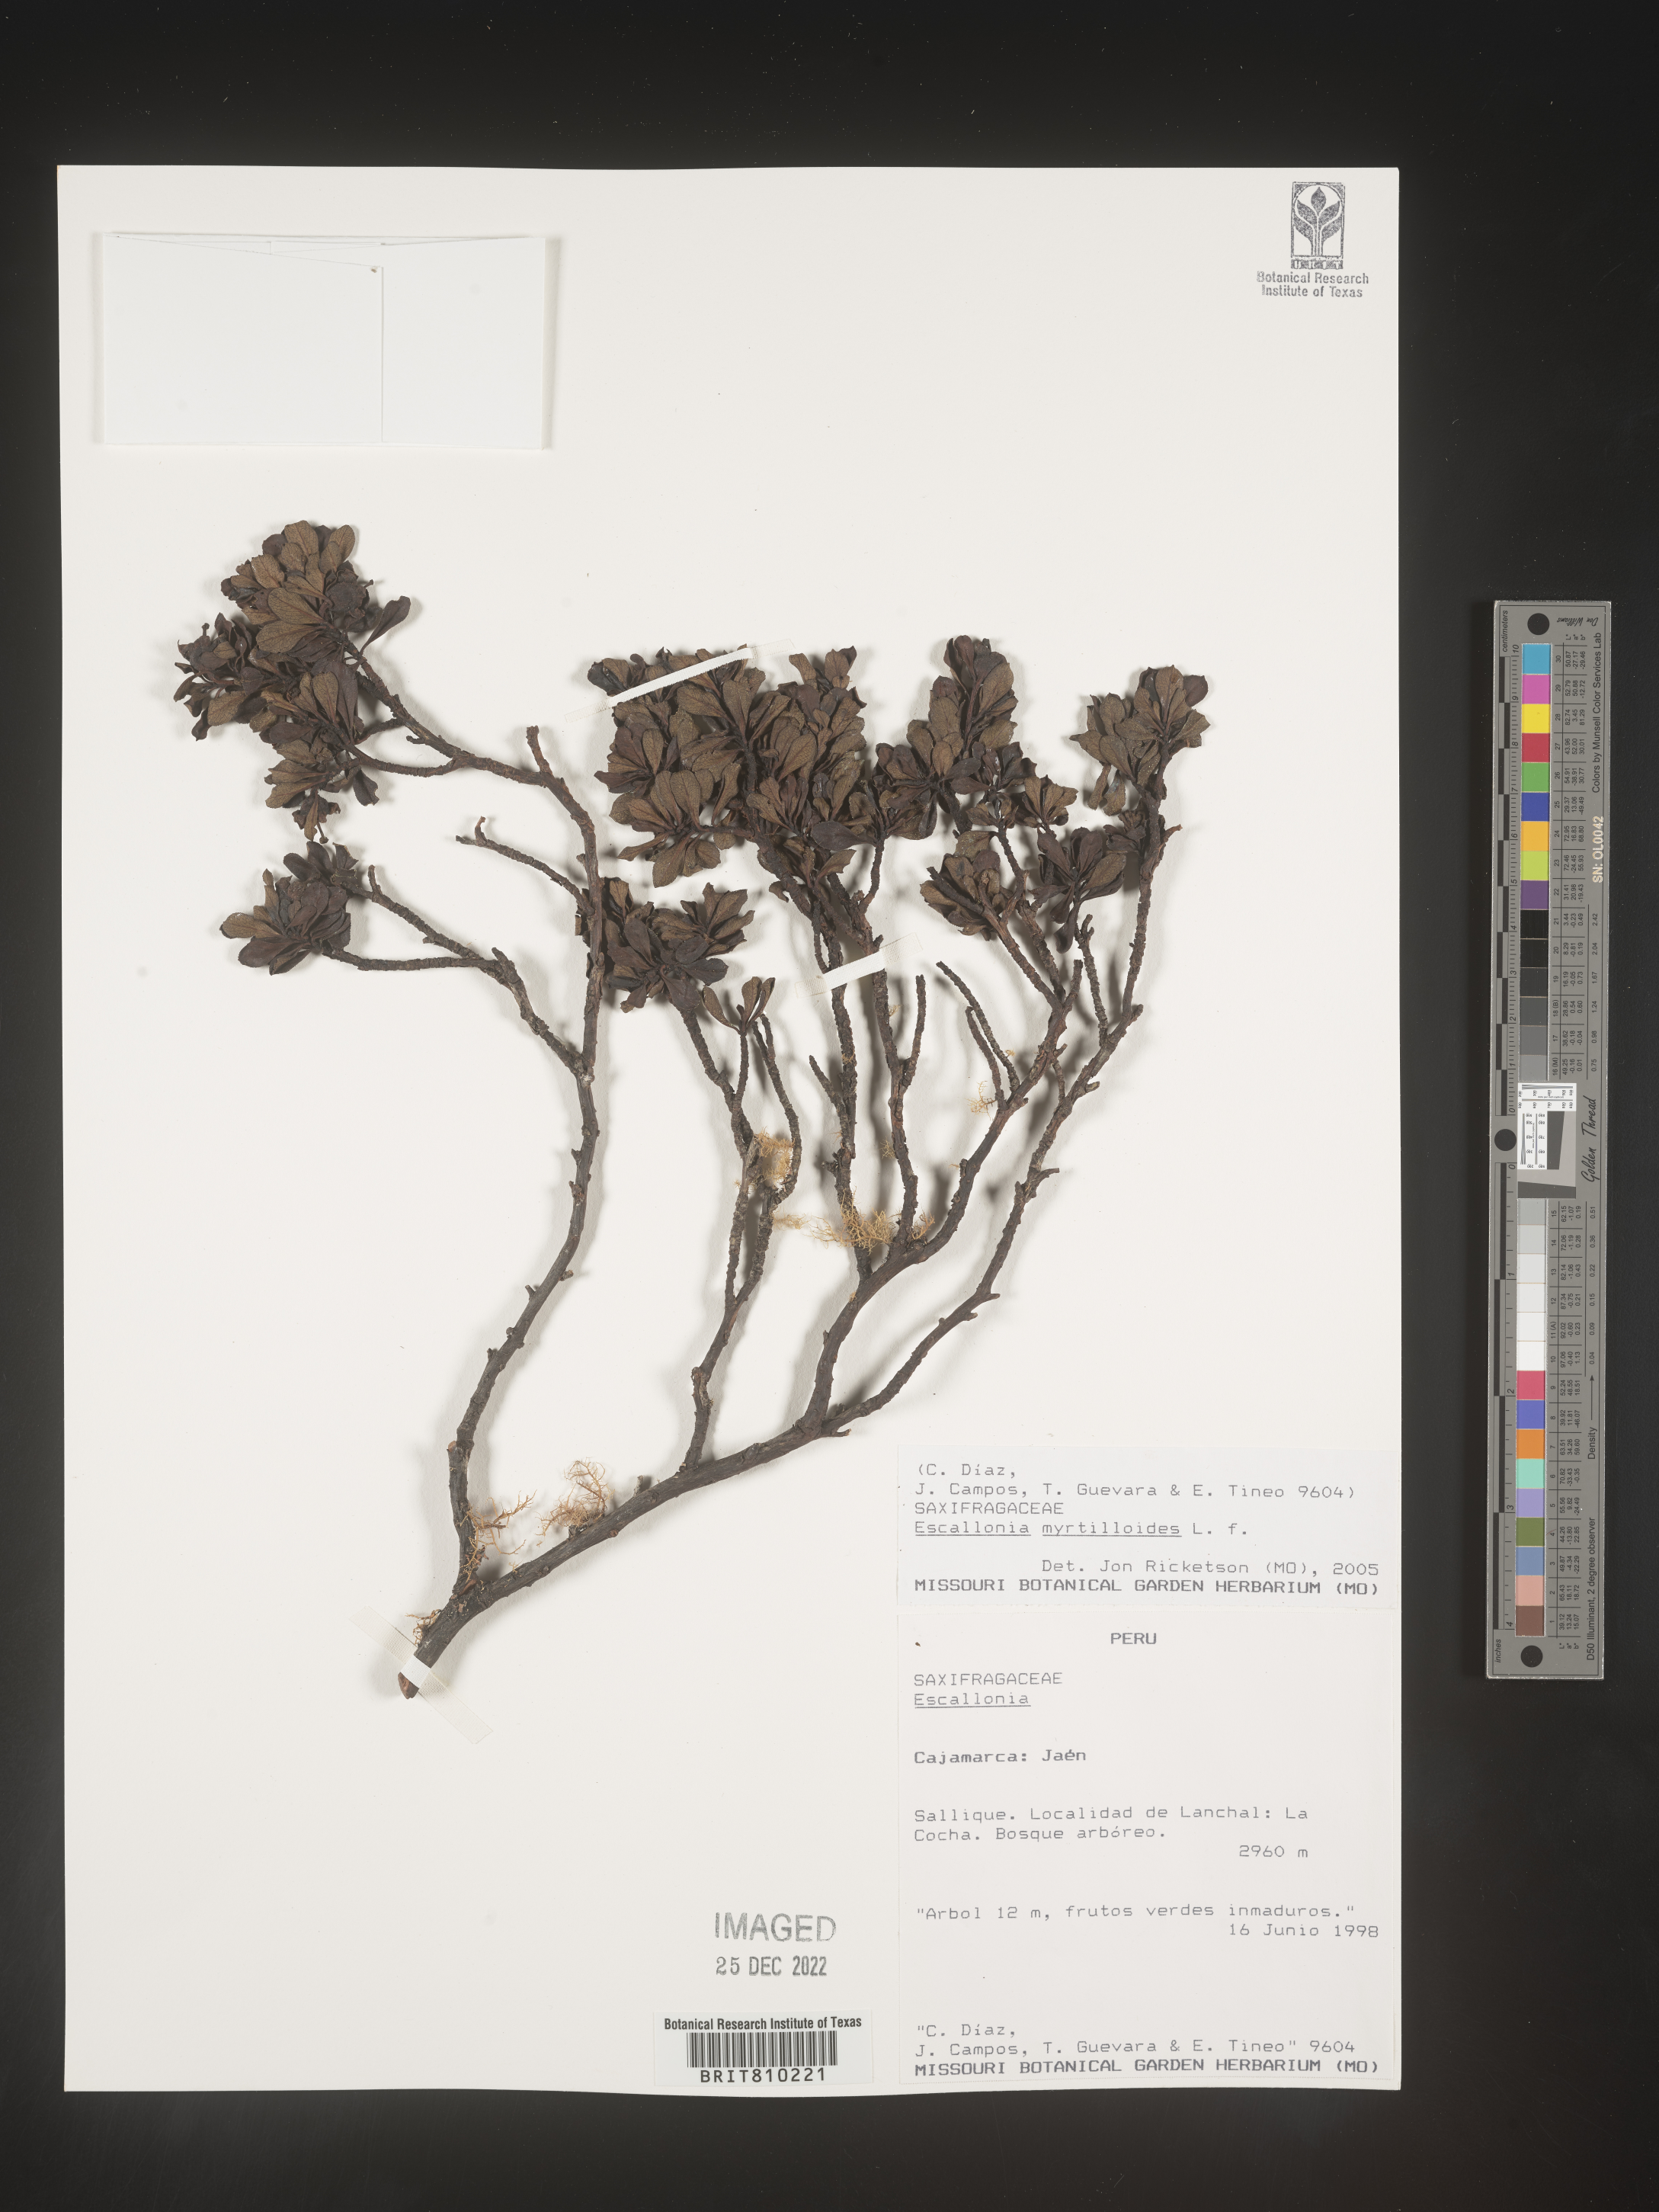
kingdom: Plantae
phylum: Tracheophyta
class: Magnoliopsida
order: Escalloniales
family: Escalloniaceae
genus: Escallonia
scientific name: Escallonia
